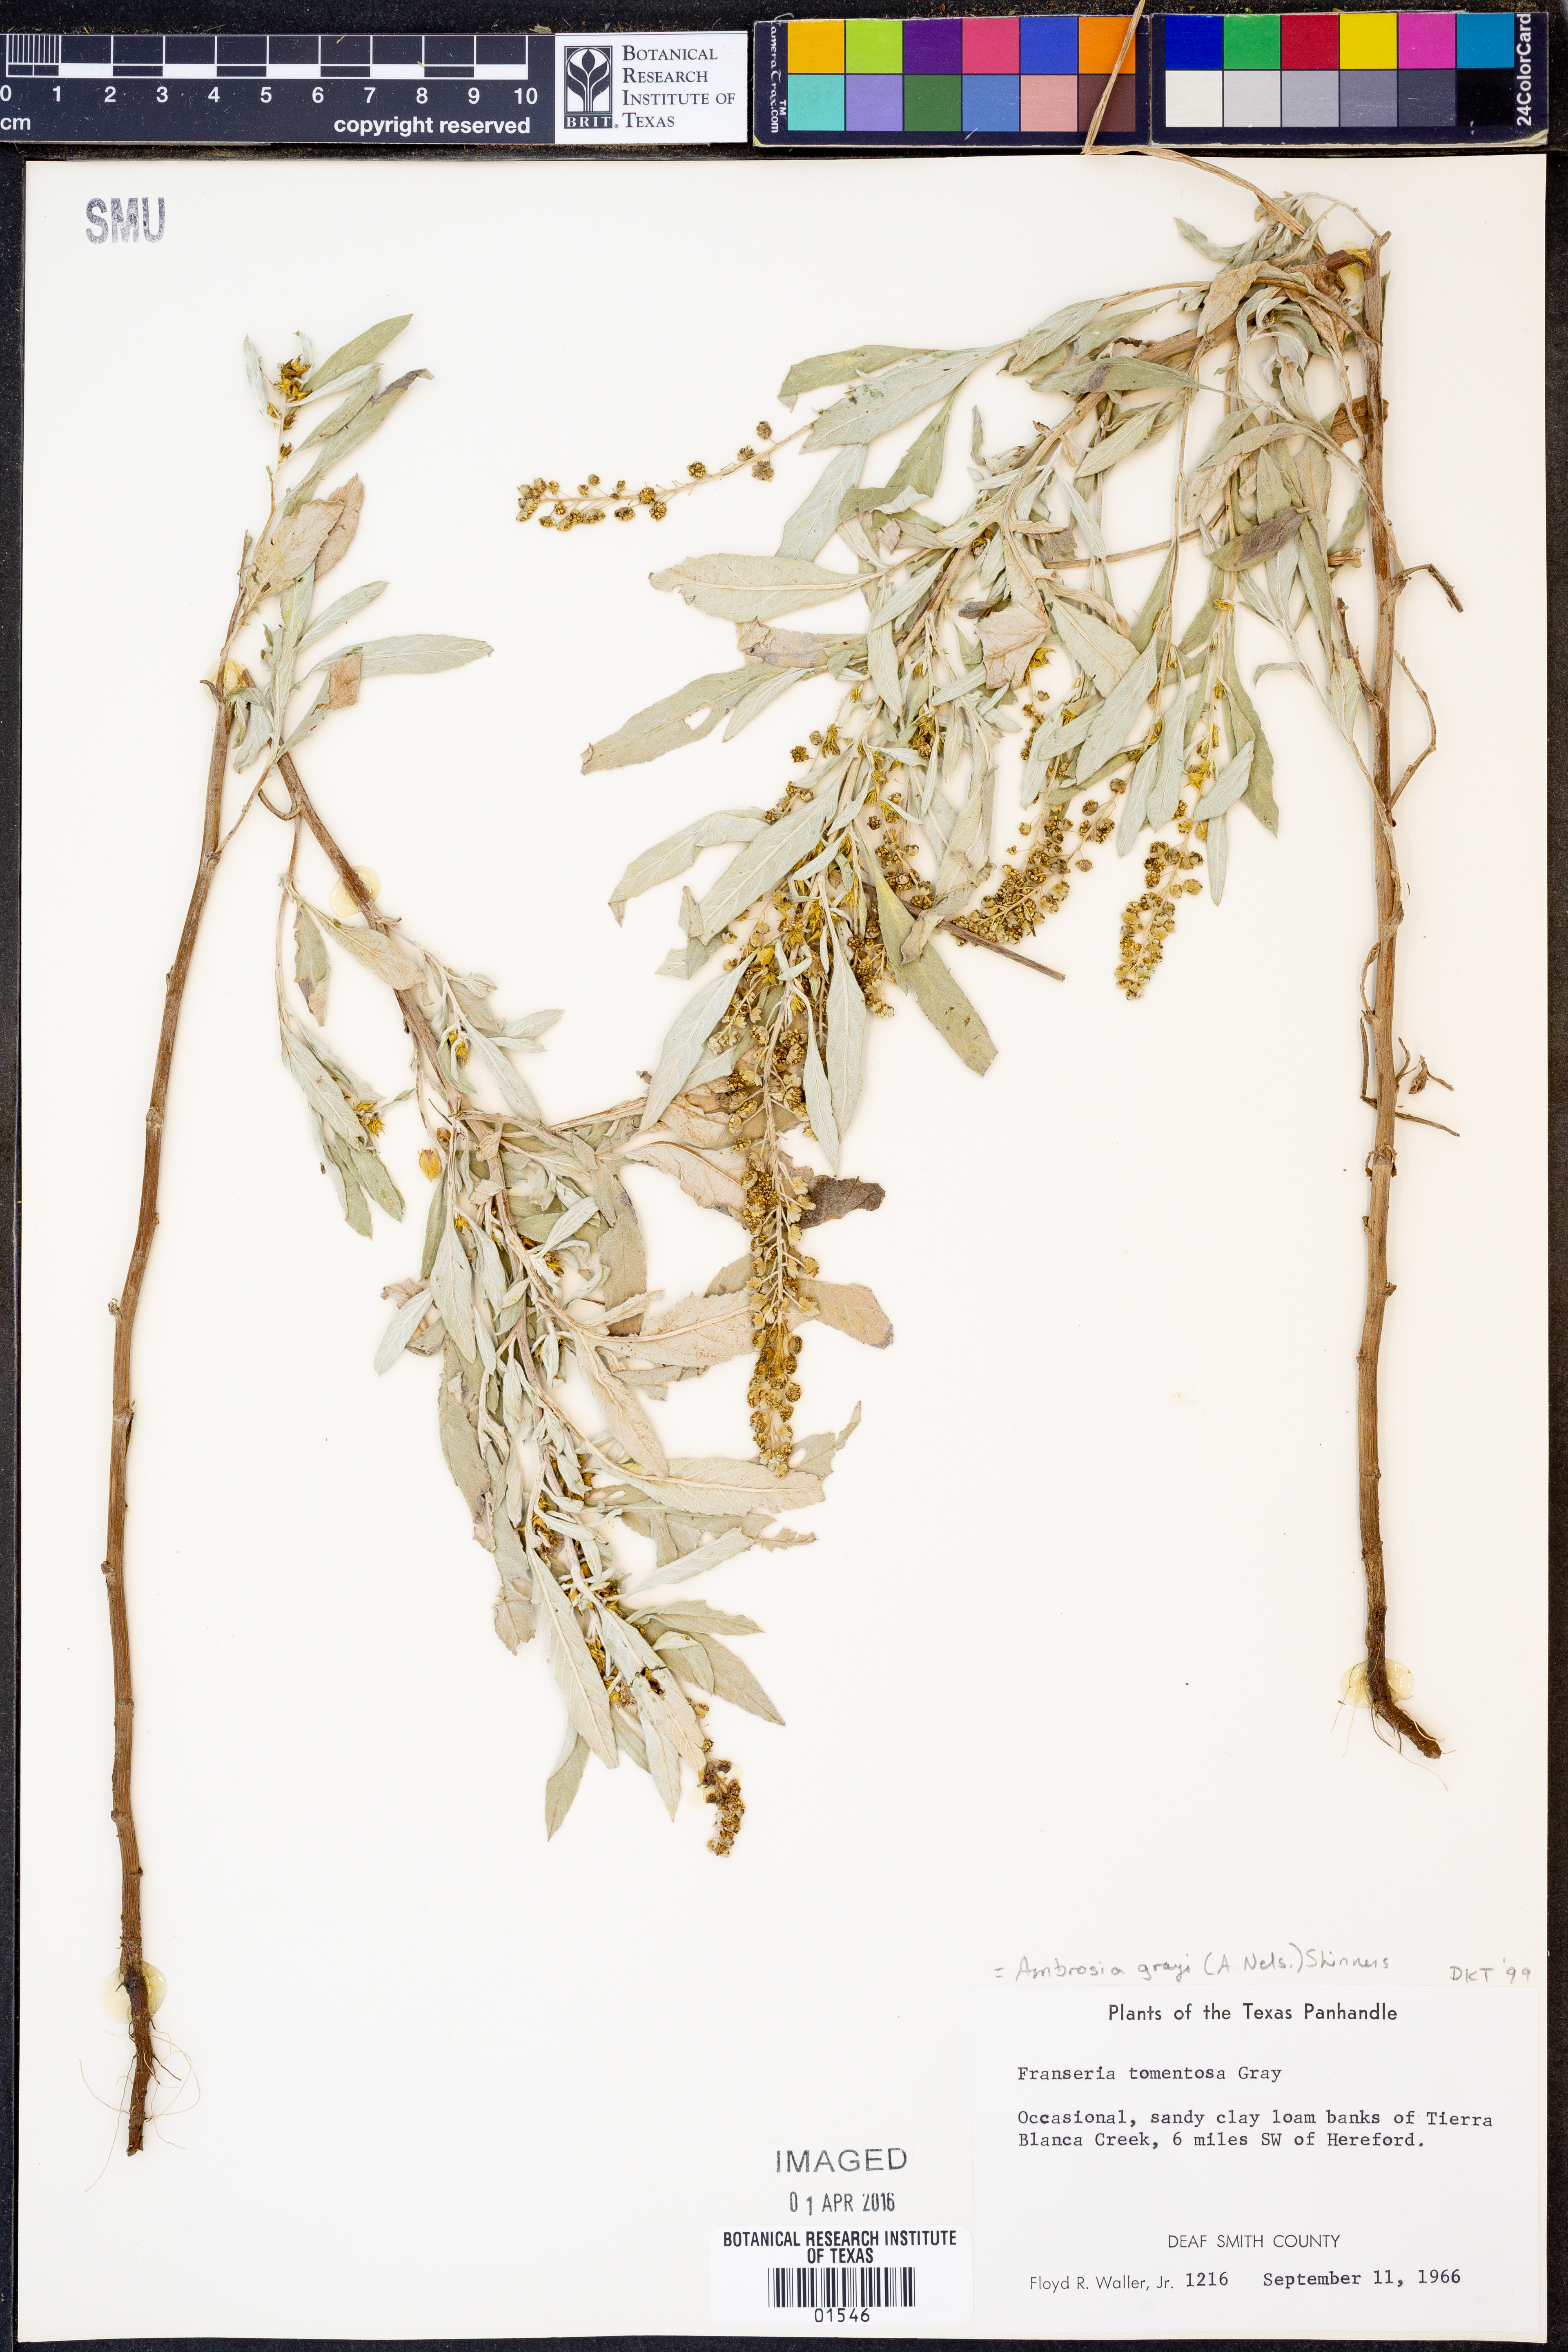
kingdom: Plantae
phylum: Tracheophyta
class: Magnoliopsida
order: Asterales
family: Asteraceae
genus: Ambrosia
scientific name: Ambrosia grayi
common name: Bur ragweed
